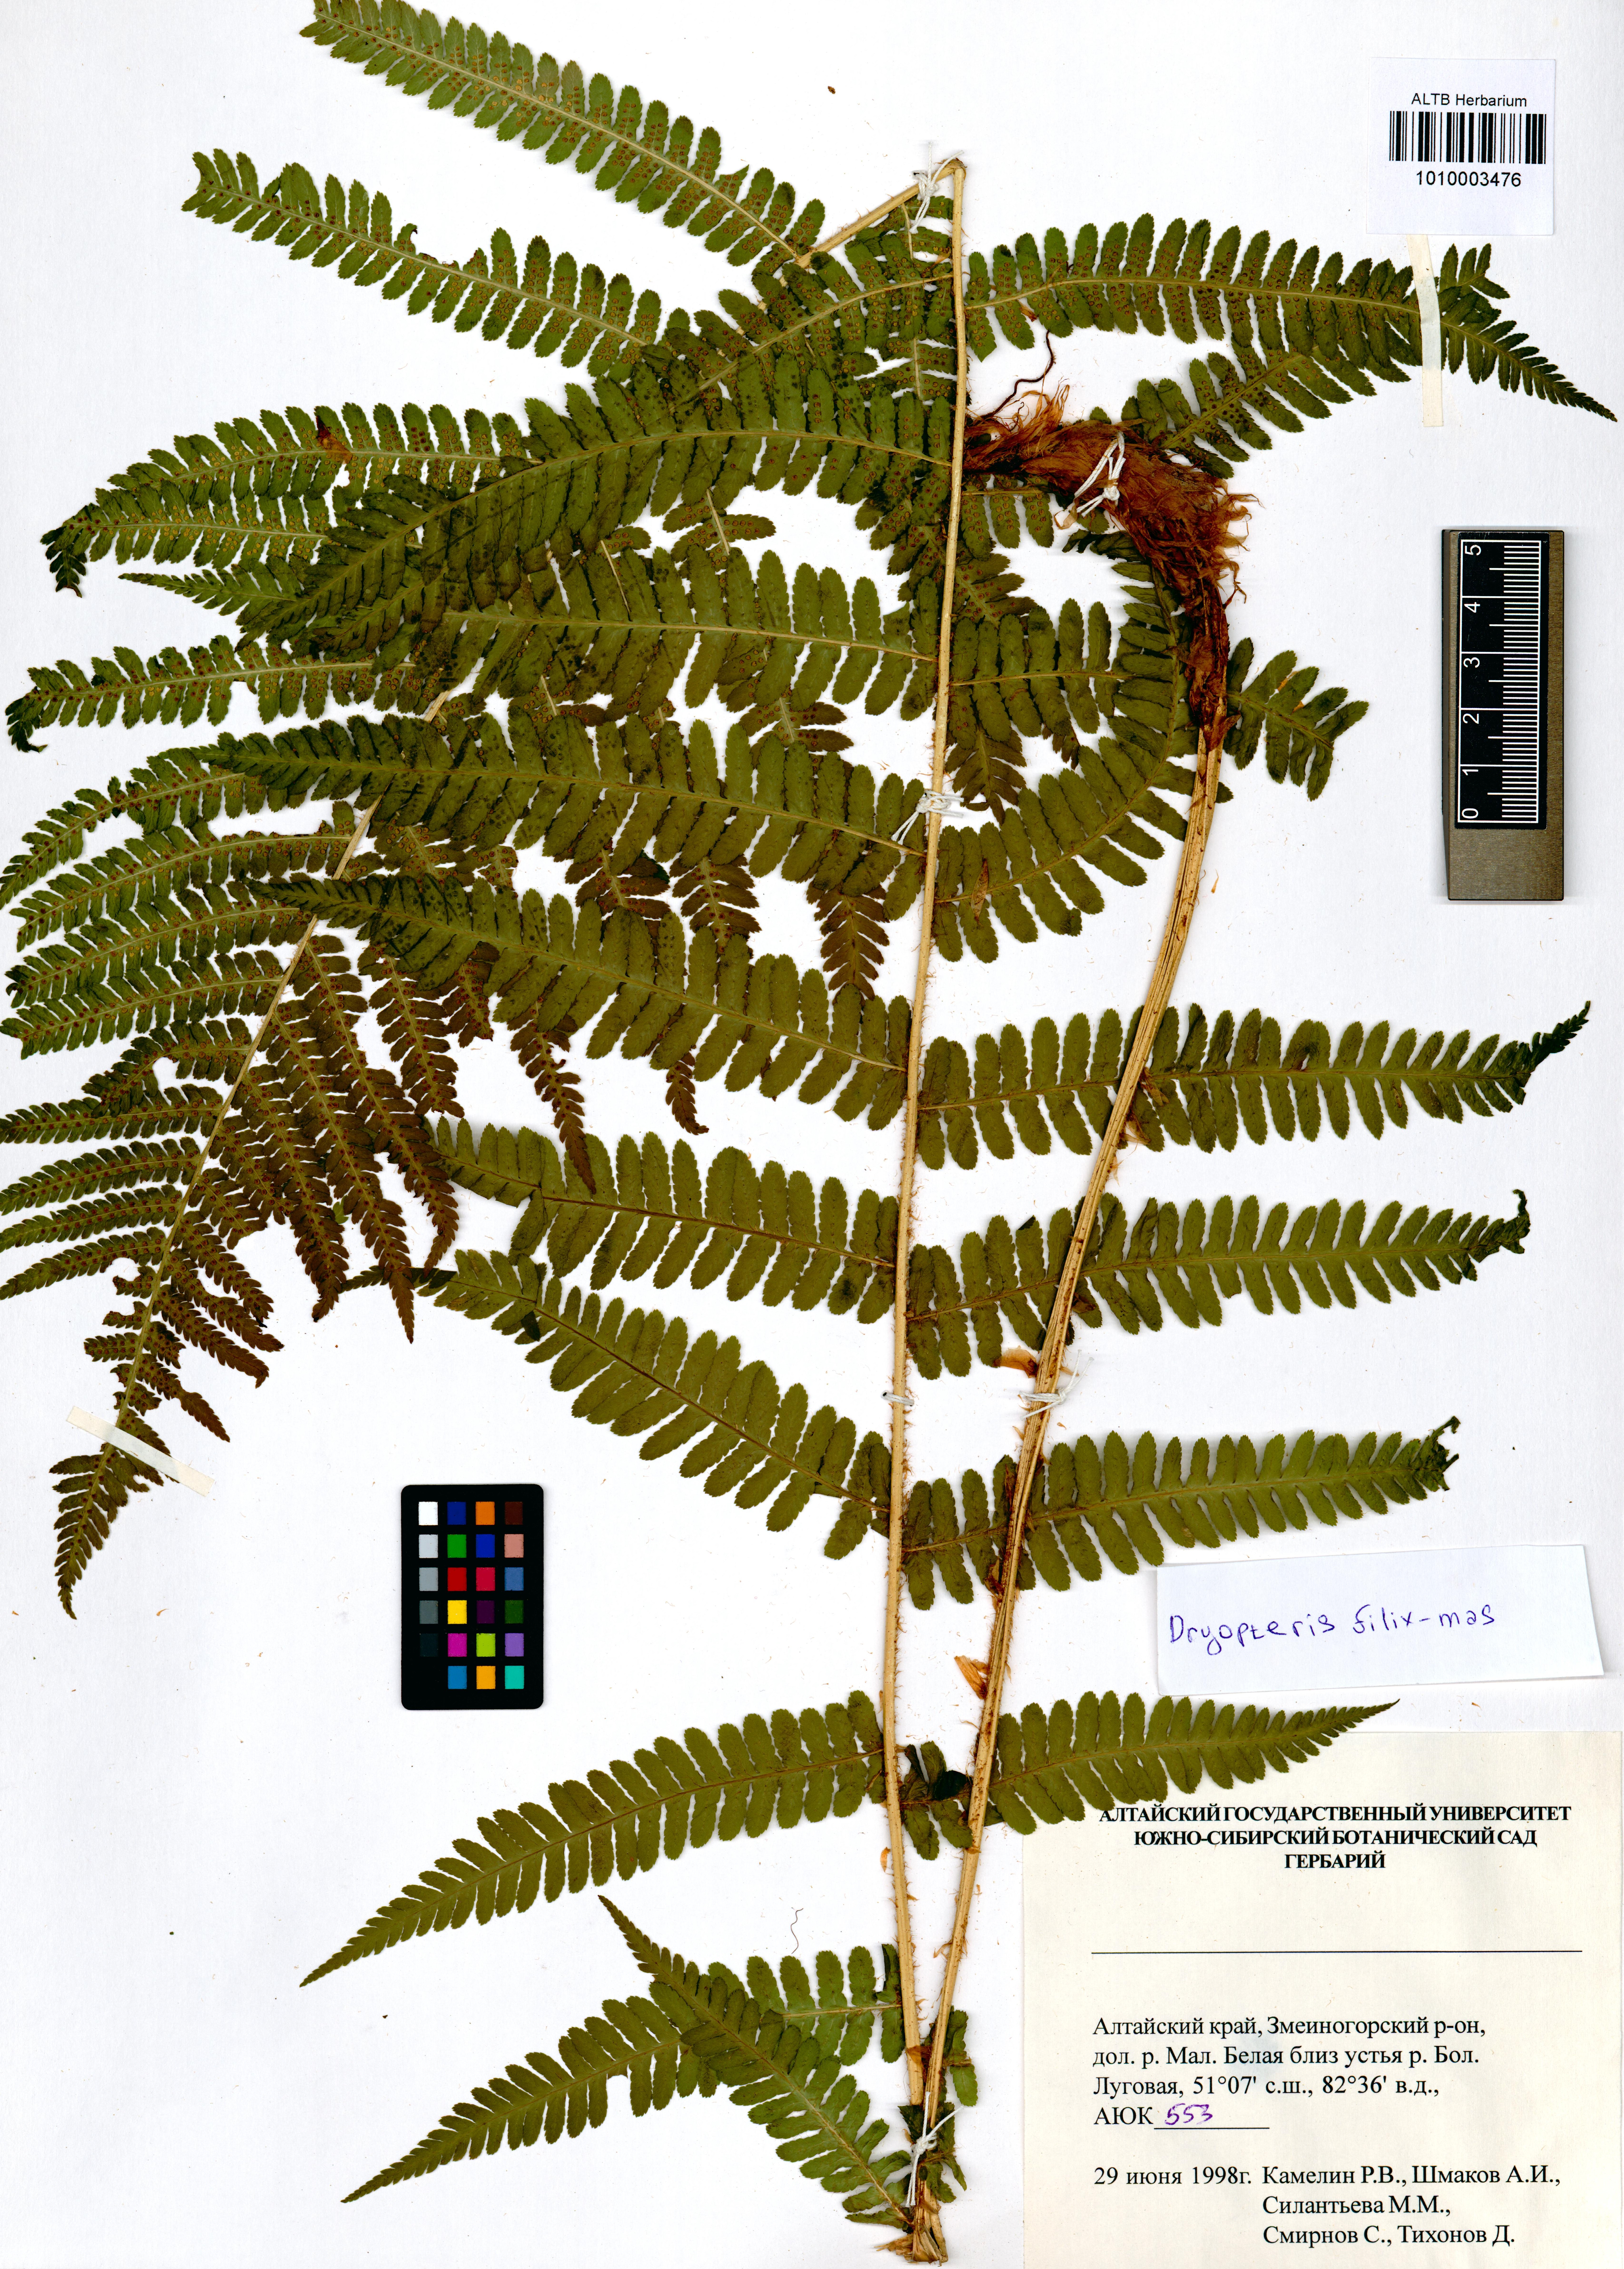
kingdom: Plantae
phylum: Tracheophyta
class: Polypodiopsida
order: Polypodiales
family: Dryopteridaceae
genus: Dryopteris
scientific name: Dryopteris filix-mas
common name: Male fern
